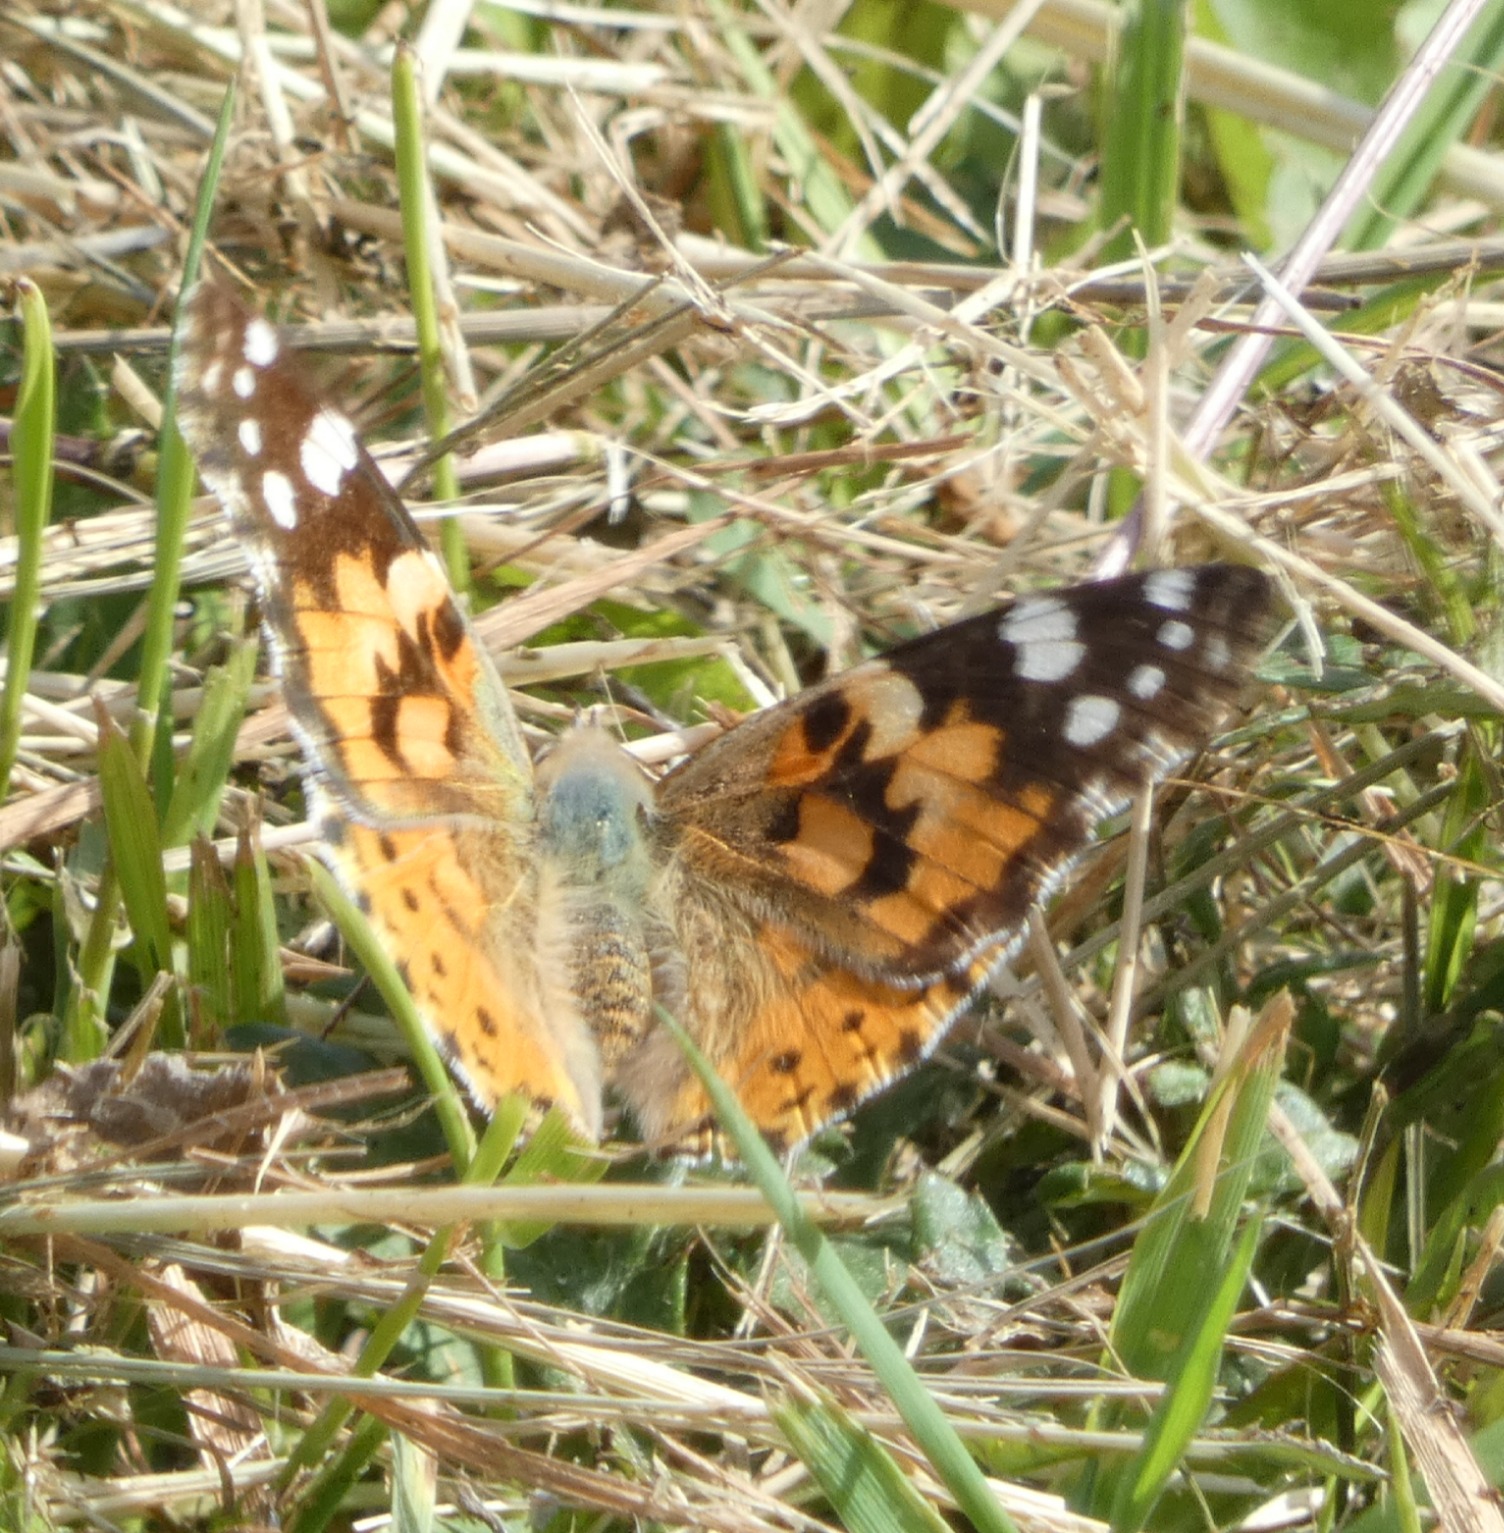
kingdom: Animalia
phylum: Arthropoda
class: Insecta
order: Lepidoptera
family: Nymphalidae
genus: Vanessa
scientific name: Vanessa cardui
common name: Tidselsommerfugl
